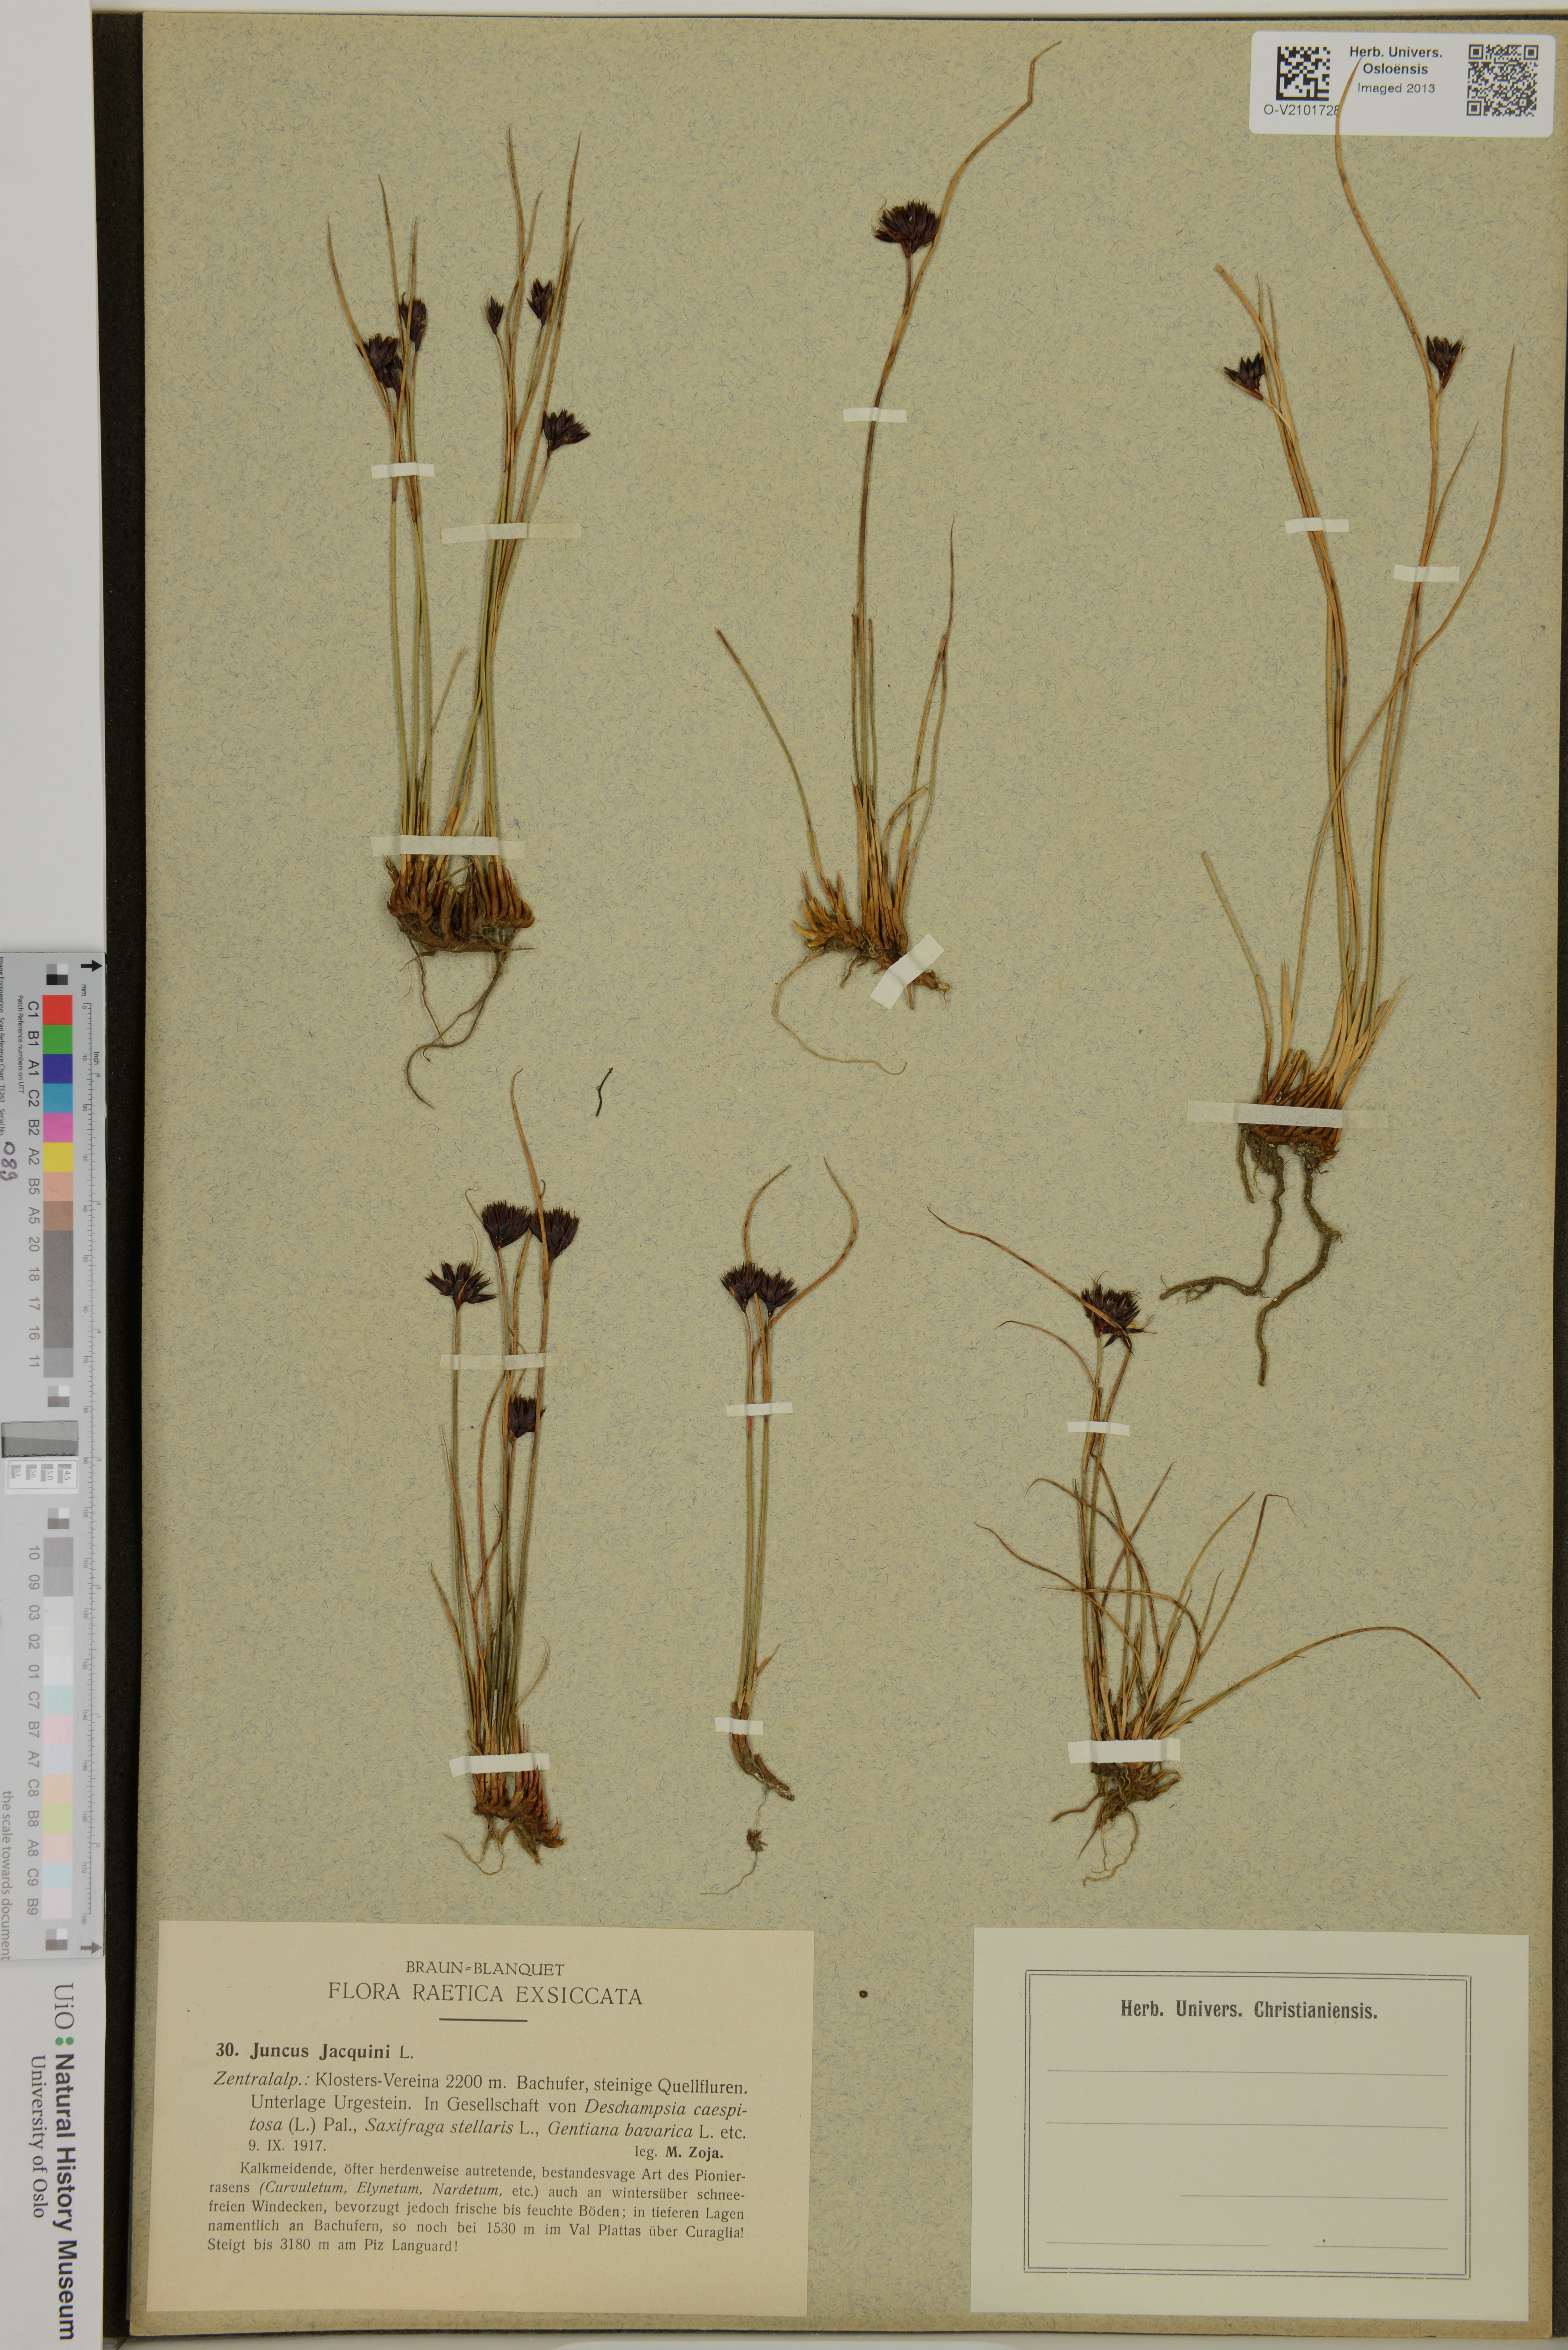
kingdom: Plantae
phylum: Tracheophyta
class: Liliopsida
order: Poales
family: Juncaceae
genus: Juncus
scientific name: Juncus jacquinii
